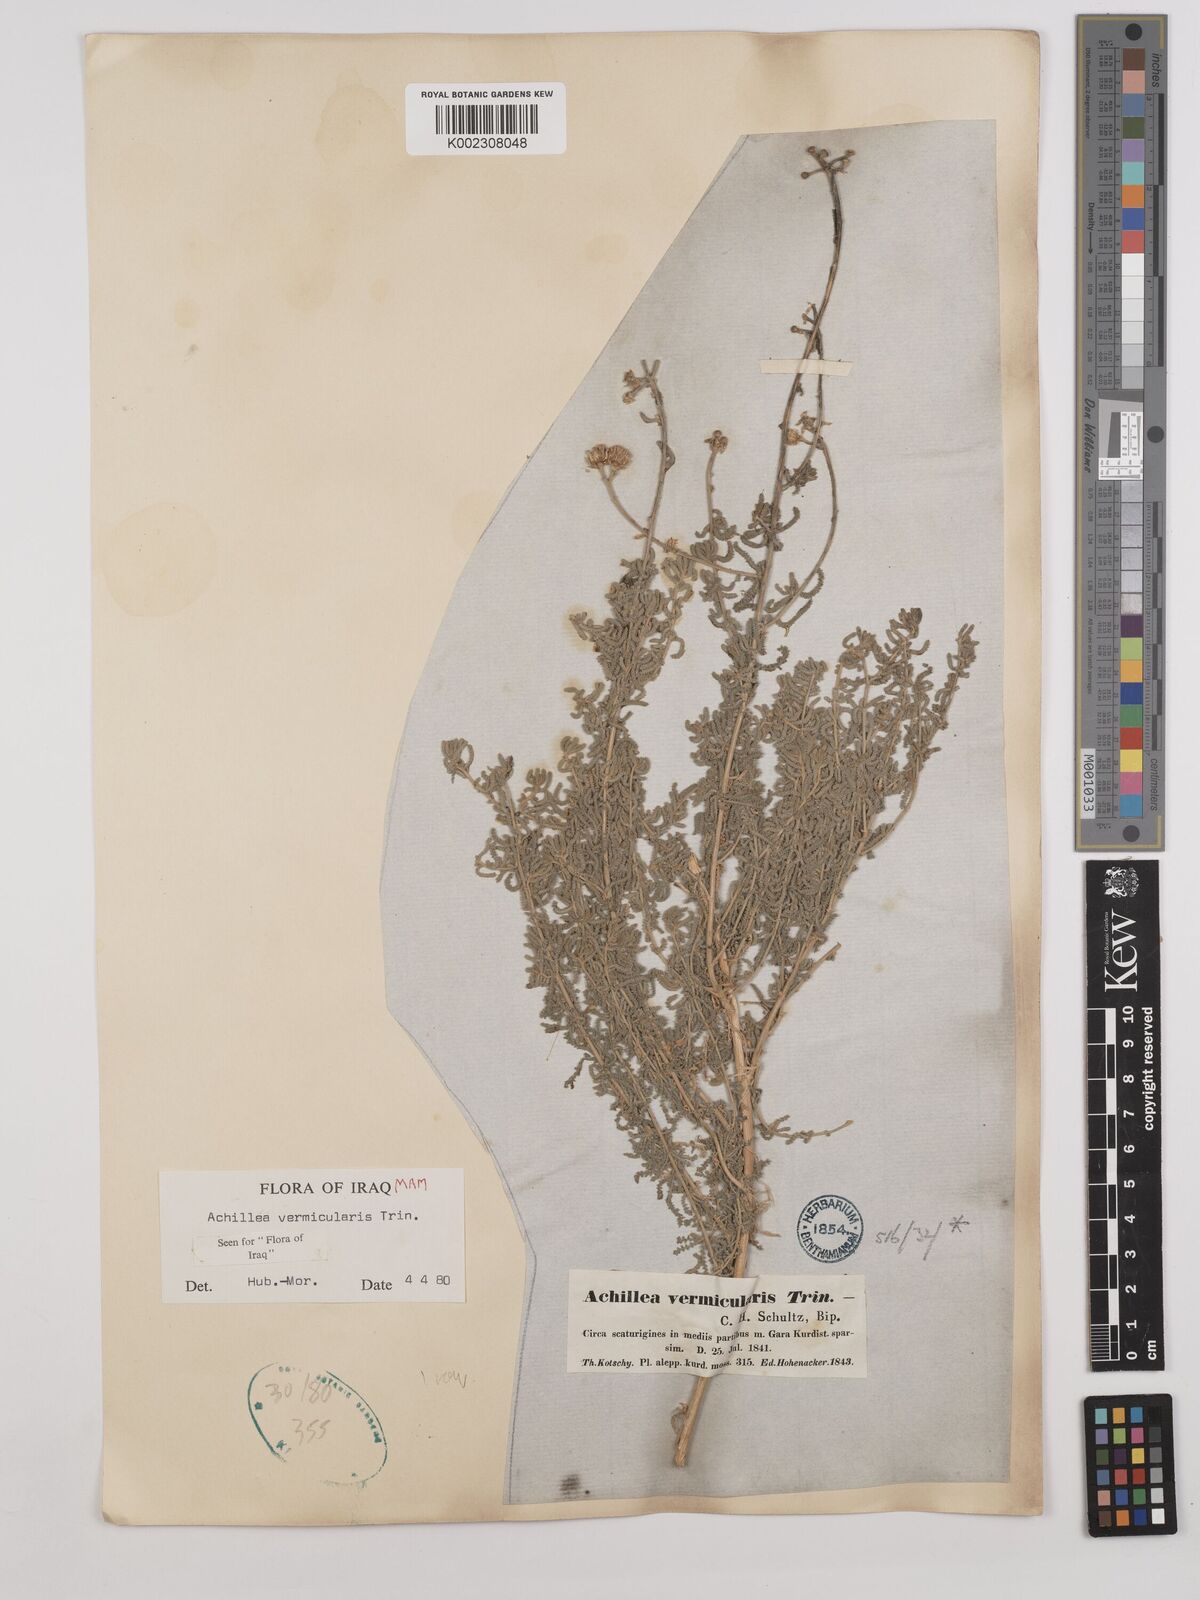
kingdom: Plantae
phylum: Tracheophyta
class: Magnoliopsida
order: Asterales
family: Asteraceae
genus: Achillea
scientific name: Achillea vermicularis
